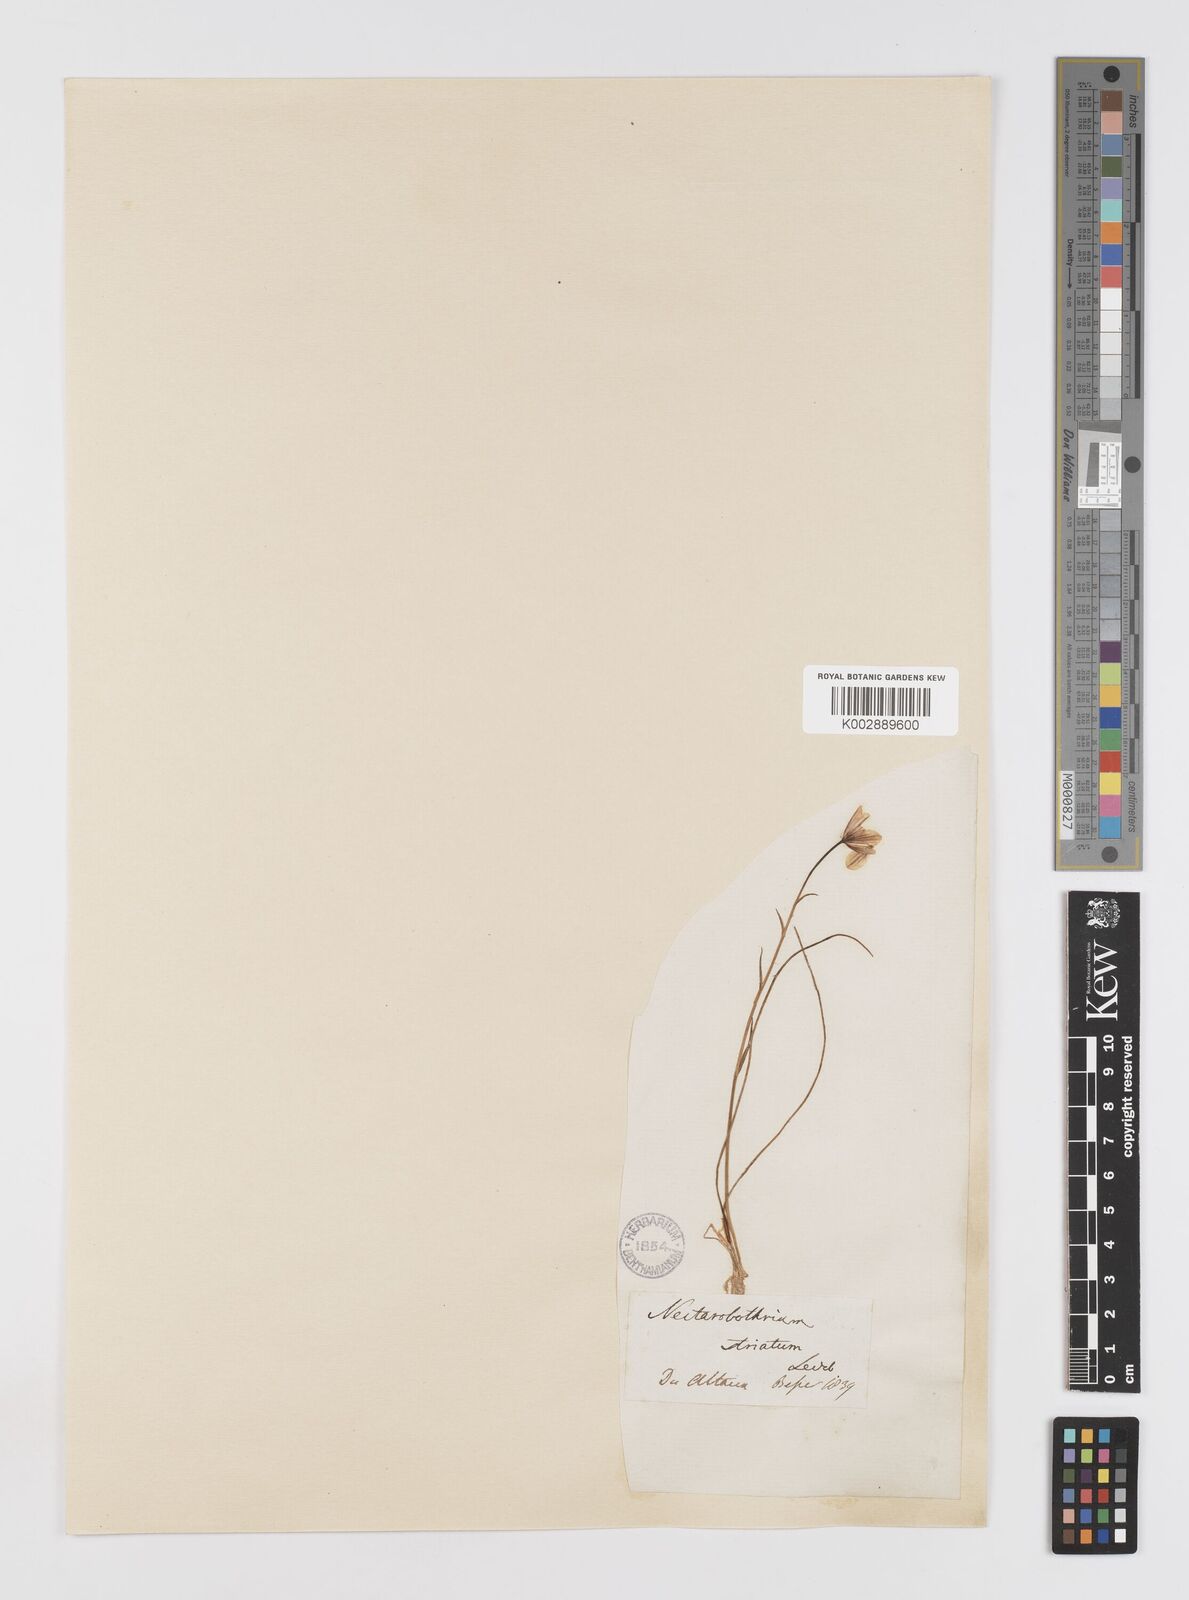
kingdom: Plantae
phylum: Tracheophyta
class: Liliopsida
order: Liliales
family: Liliaceae
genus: Gagea
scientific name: Gagea serotina
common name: Snowdon lily
